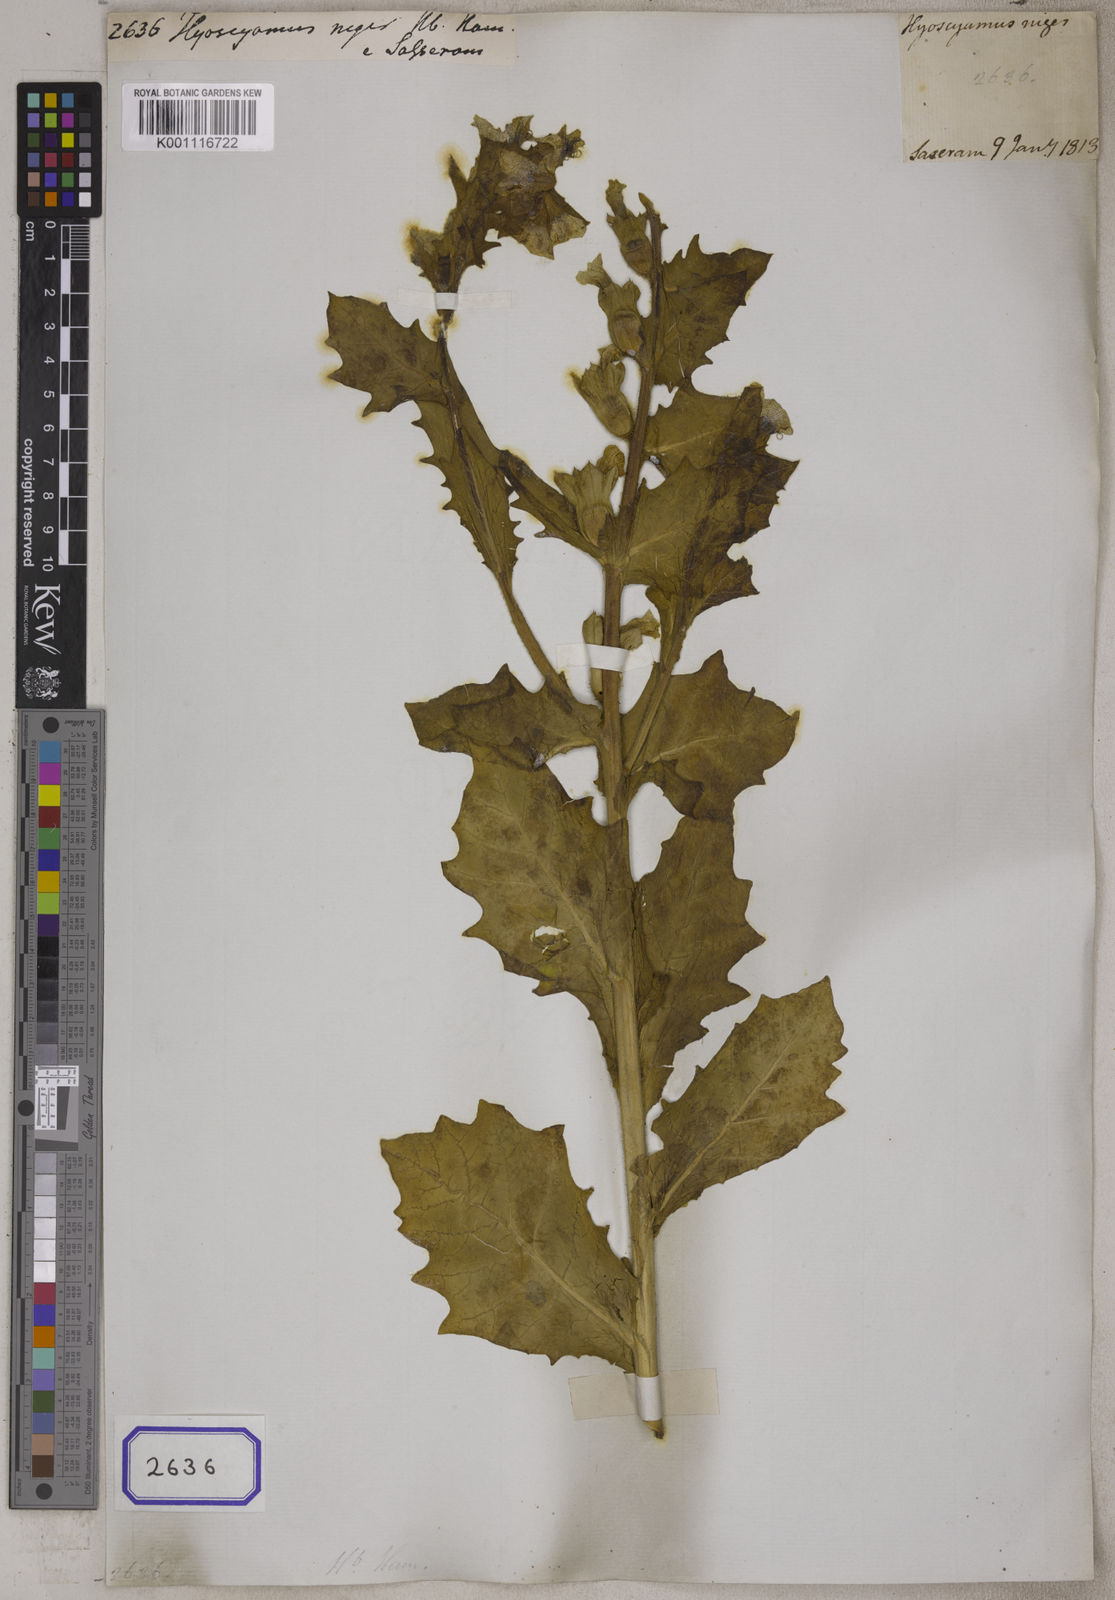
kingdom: Plantae
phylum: Tracheophyta
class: Magnoliopsida
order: Solanales
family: Solanaceae
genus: Hyoscyamus
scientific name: Hyoscyamus niger
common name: Henbane
